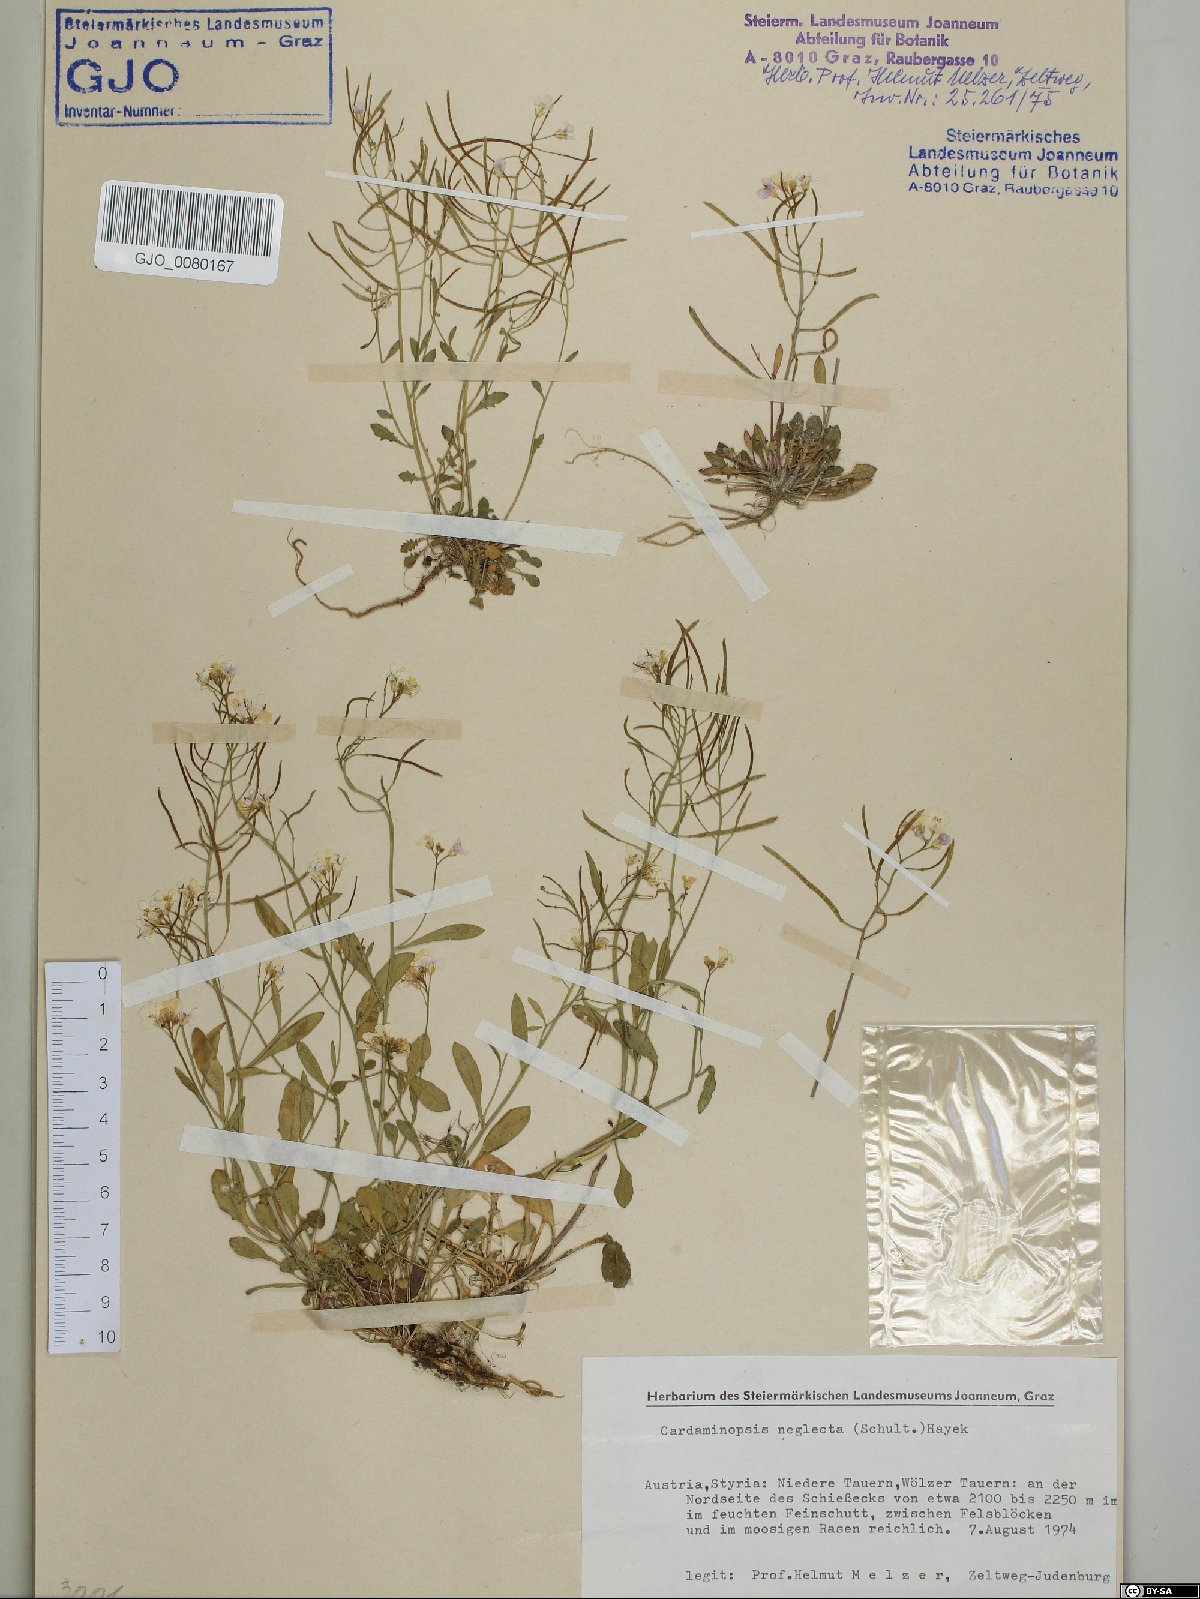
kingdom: Plantae
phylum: Tracheophyta
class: Magnoliopsida
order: Brassicales
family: Brassicaceae
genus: Arabidopsis
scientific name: Arabidopsis neglecta
